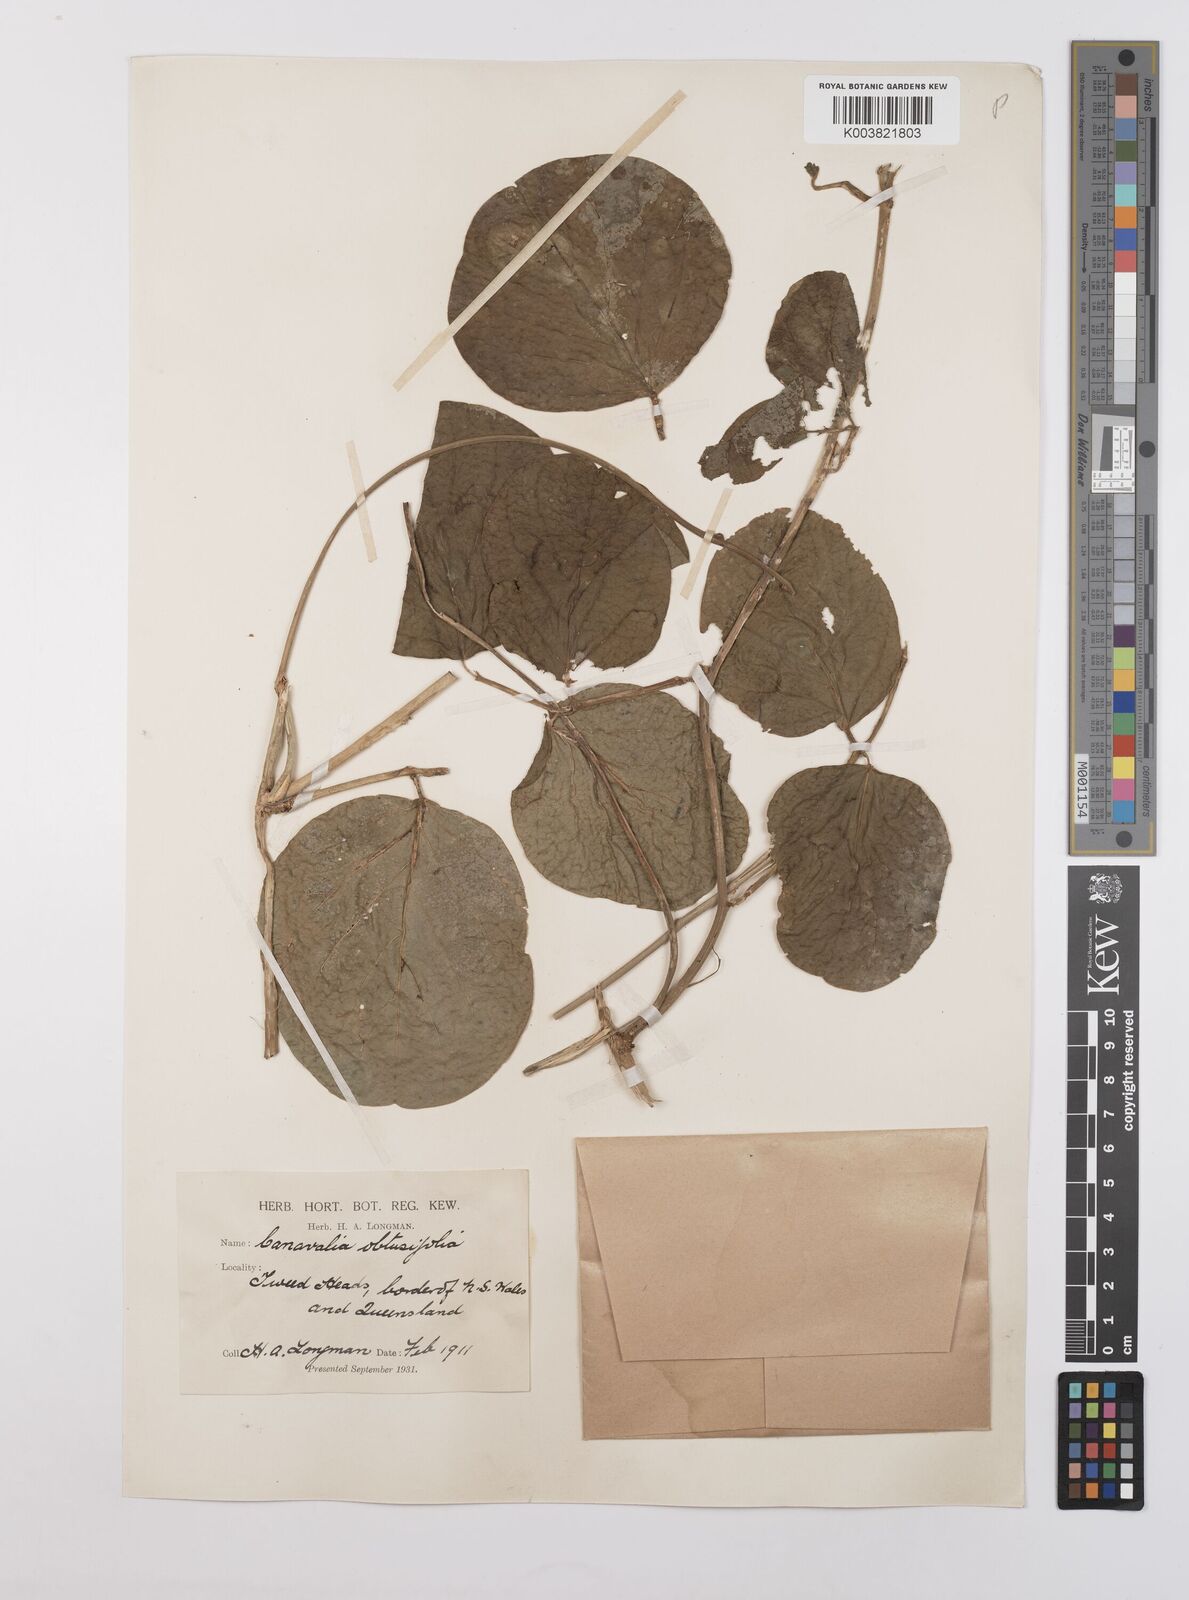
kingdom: Plantae
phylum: Tracheophyta
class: Magnoliopsida
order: Fabales
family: Fabaceae
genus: Canavalia
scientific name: Canavalia rosea
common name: Beach-bean
